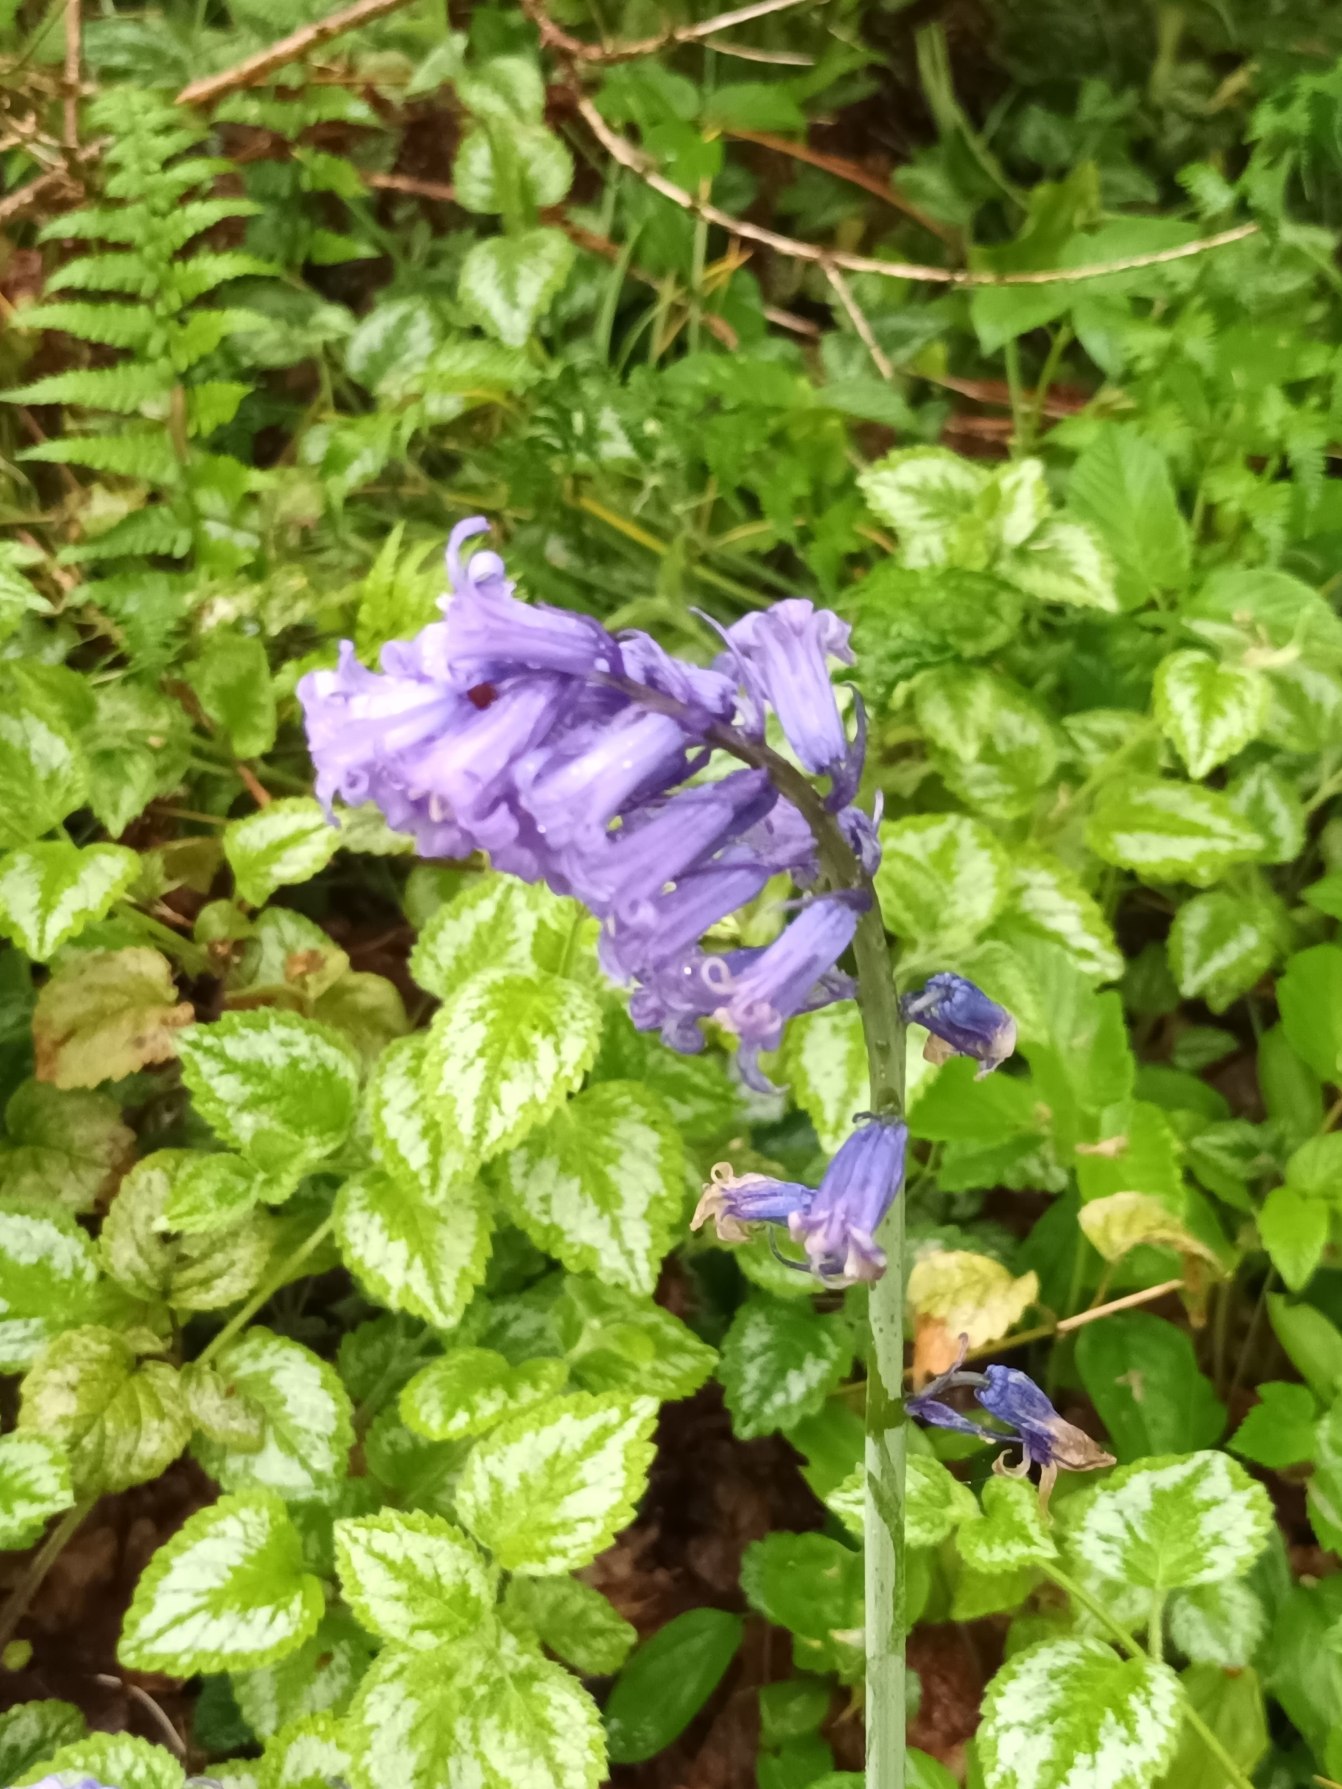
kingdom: Plantae
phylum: Tracheophyta
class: Liliopsida
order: Asparagales
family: Asparagaceae
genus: Hyacinthoides
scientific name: Hyacinthoides non-scripta
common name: Klokke-skilla
